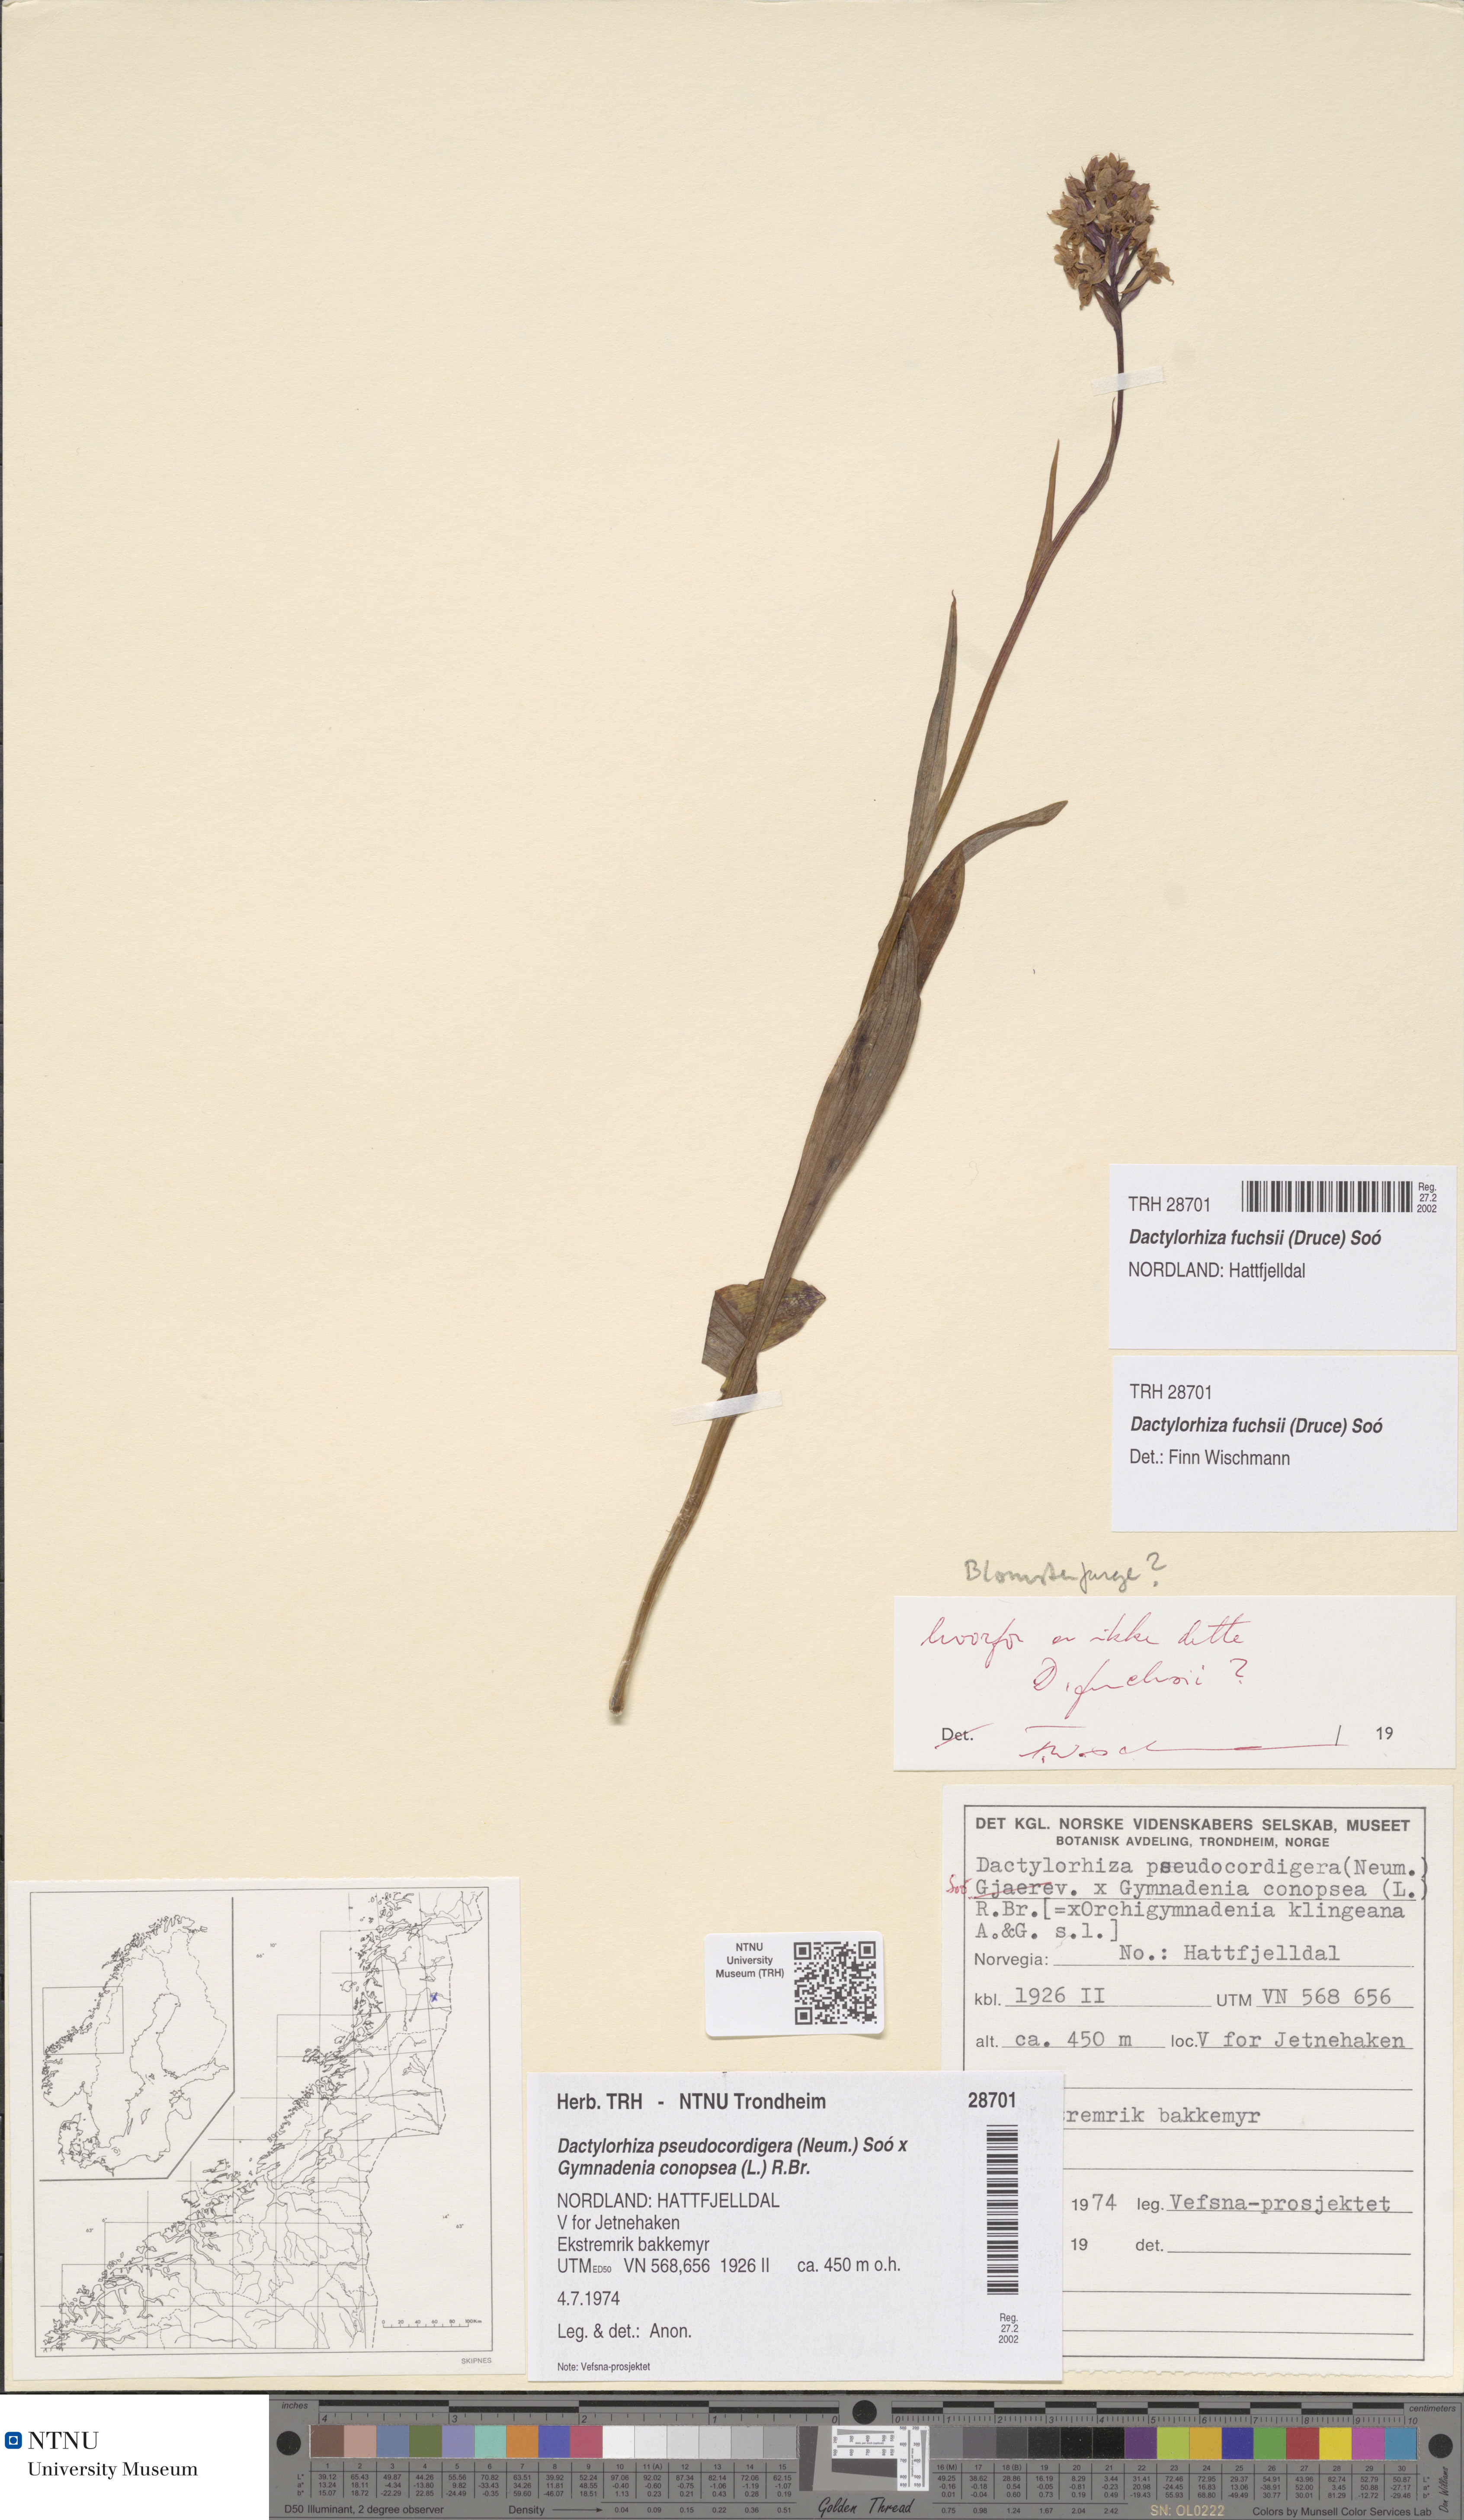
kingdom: Plantae
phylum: Tracheophyta
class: Liliopsida
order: Asparagales
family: Orchidaceae
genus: Dactylorhiza
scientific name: Dactylorhiza maculata
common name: Heath spotted-orchid
